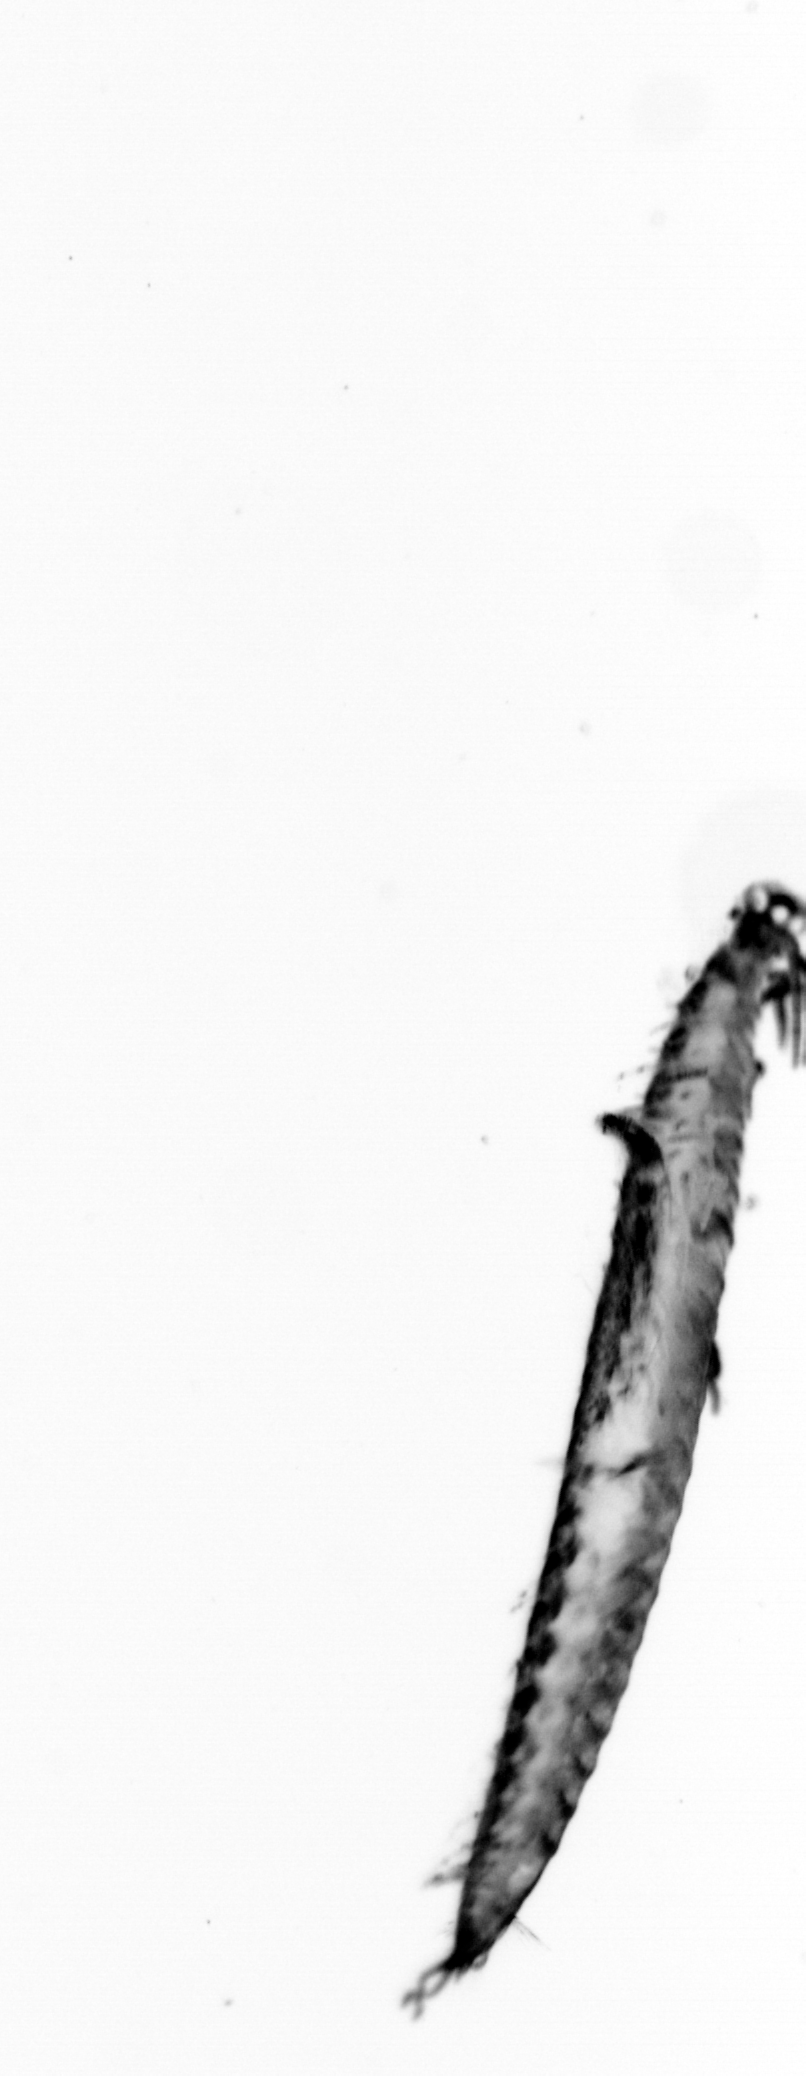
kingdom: Animalia
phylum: Annelida
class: Polychaeta
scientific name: Polychaeta
